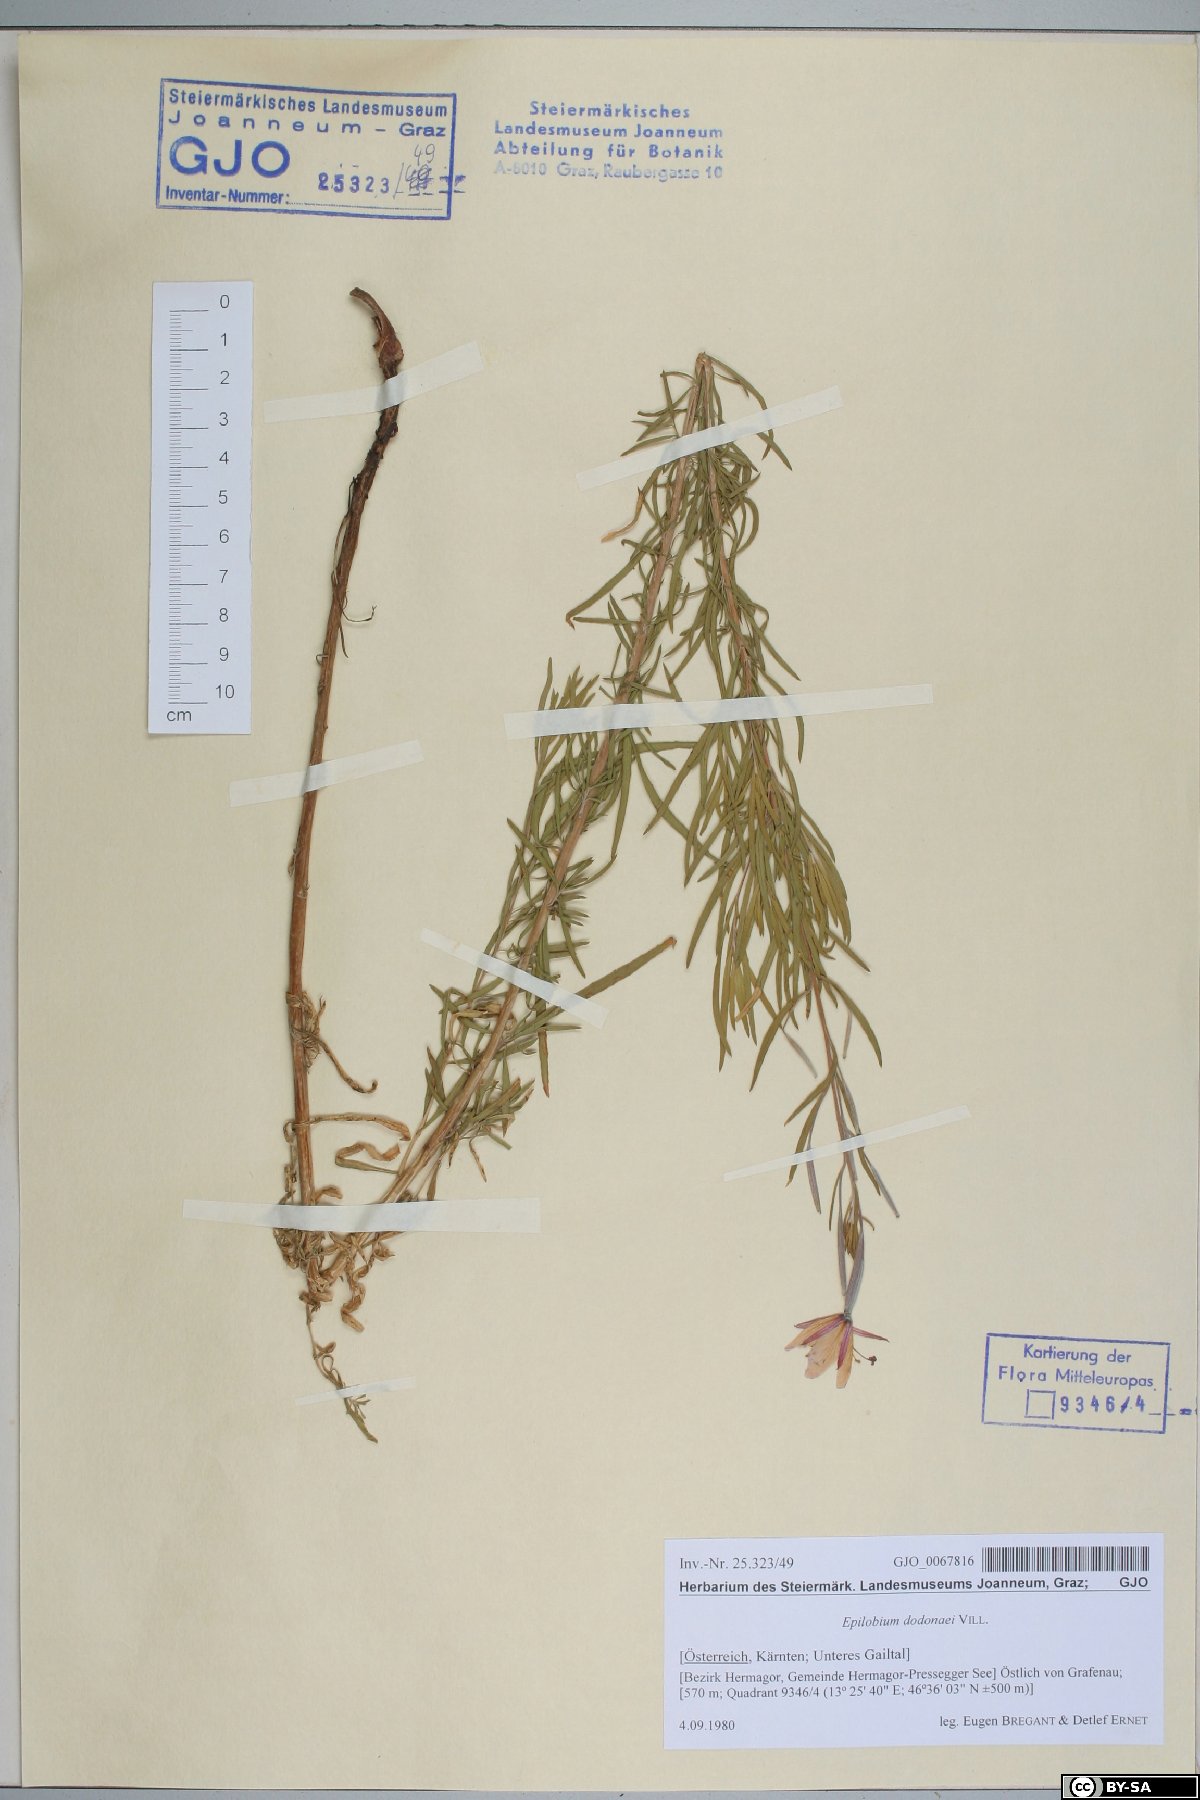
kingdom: Plantae
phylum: Tracheophyta
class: Magnoliopsida
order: Myrtales
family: Onagraceae
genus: Chamaenerion
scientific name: Chamaenerion dodonaei
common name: Rosemary-leaved willowherb
